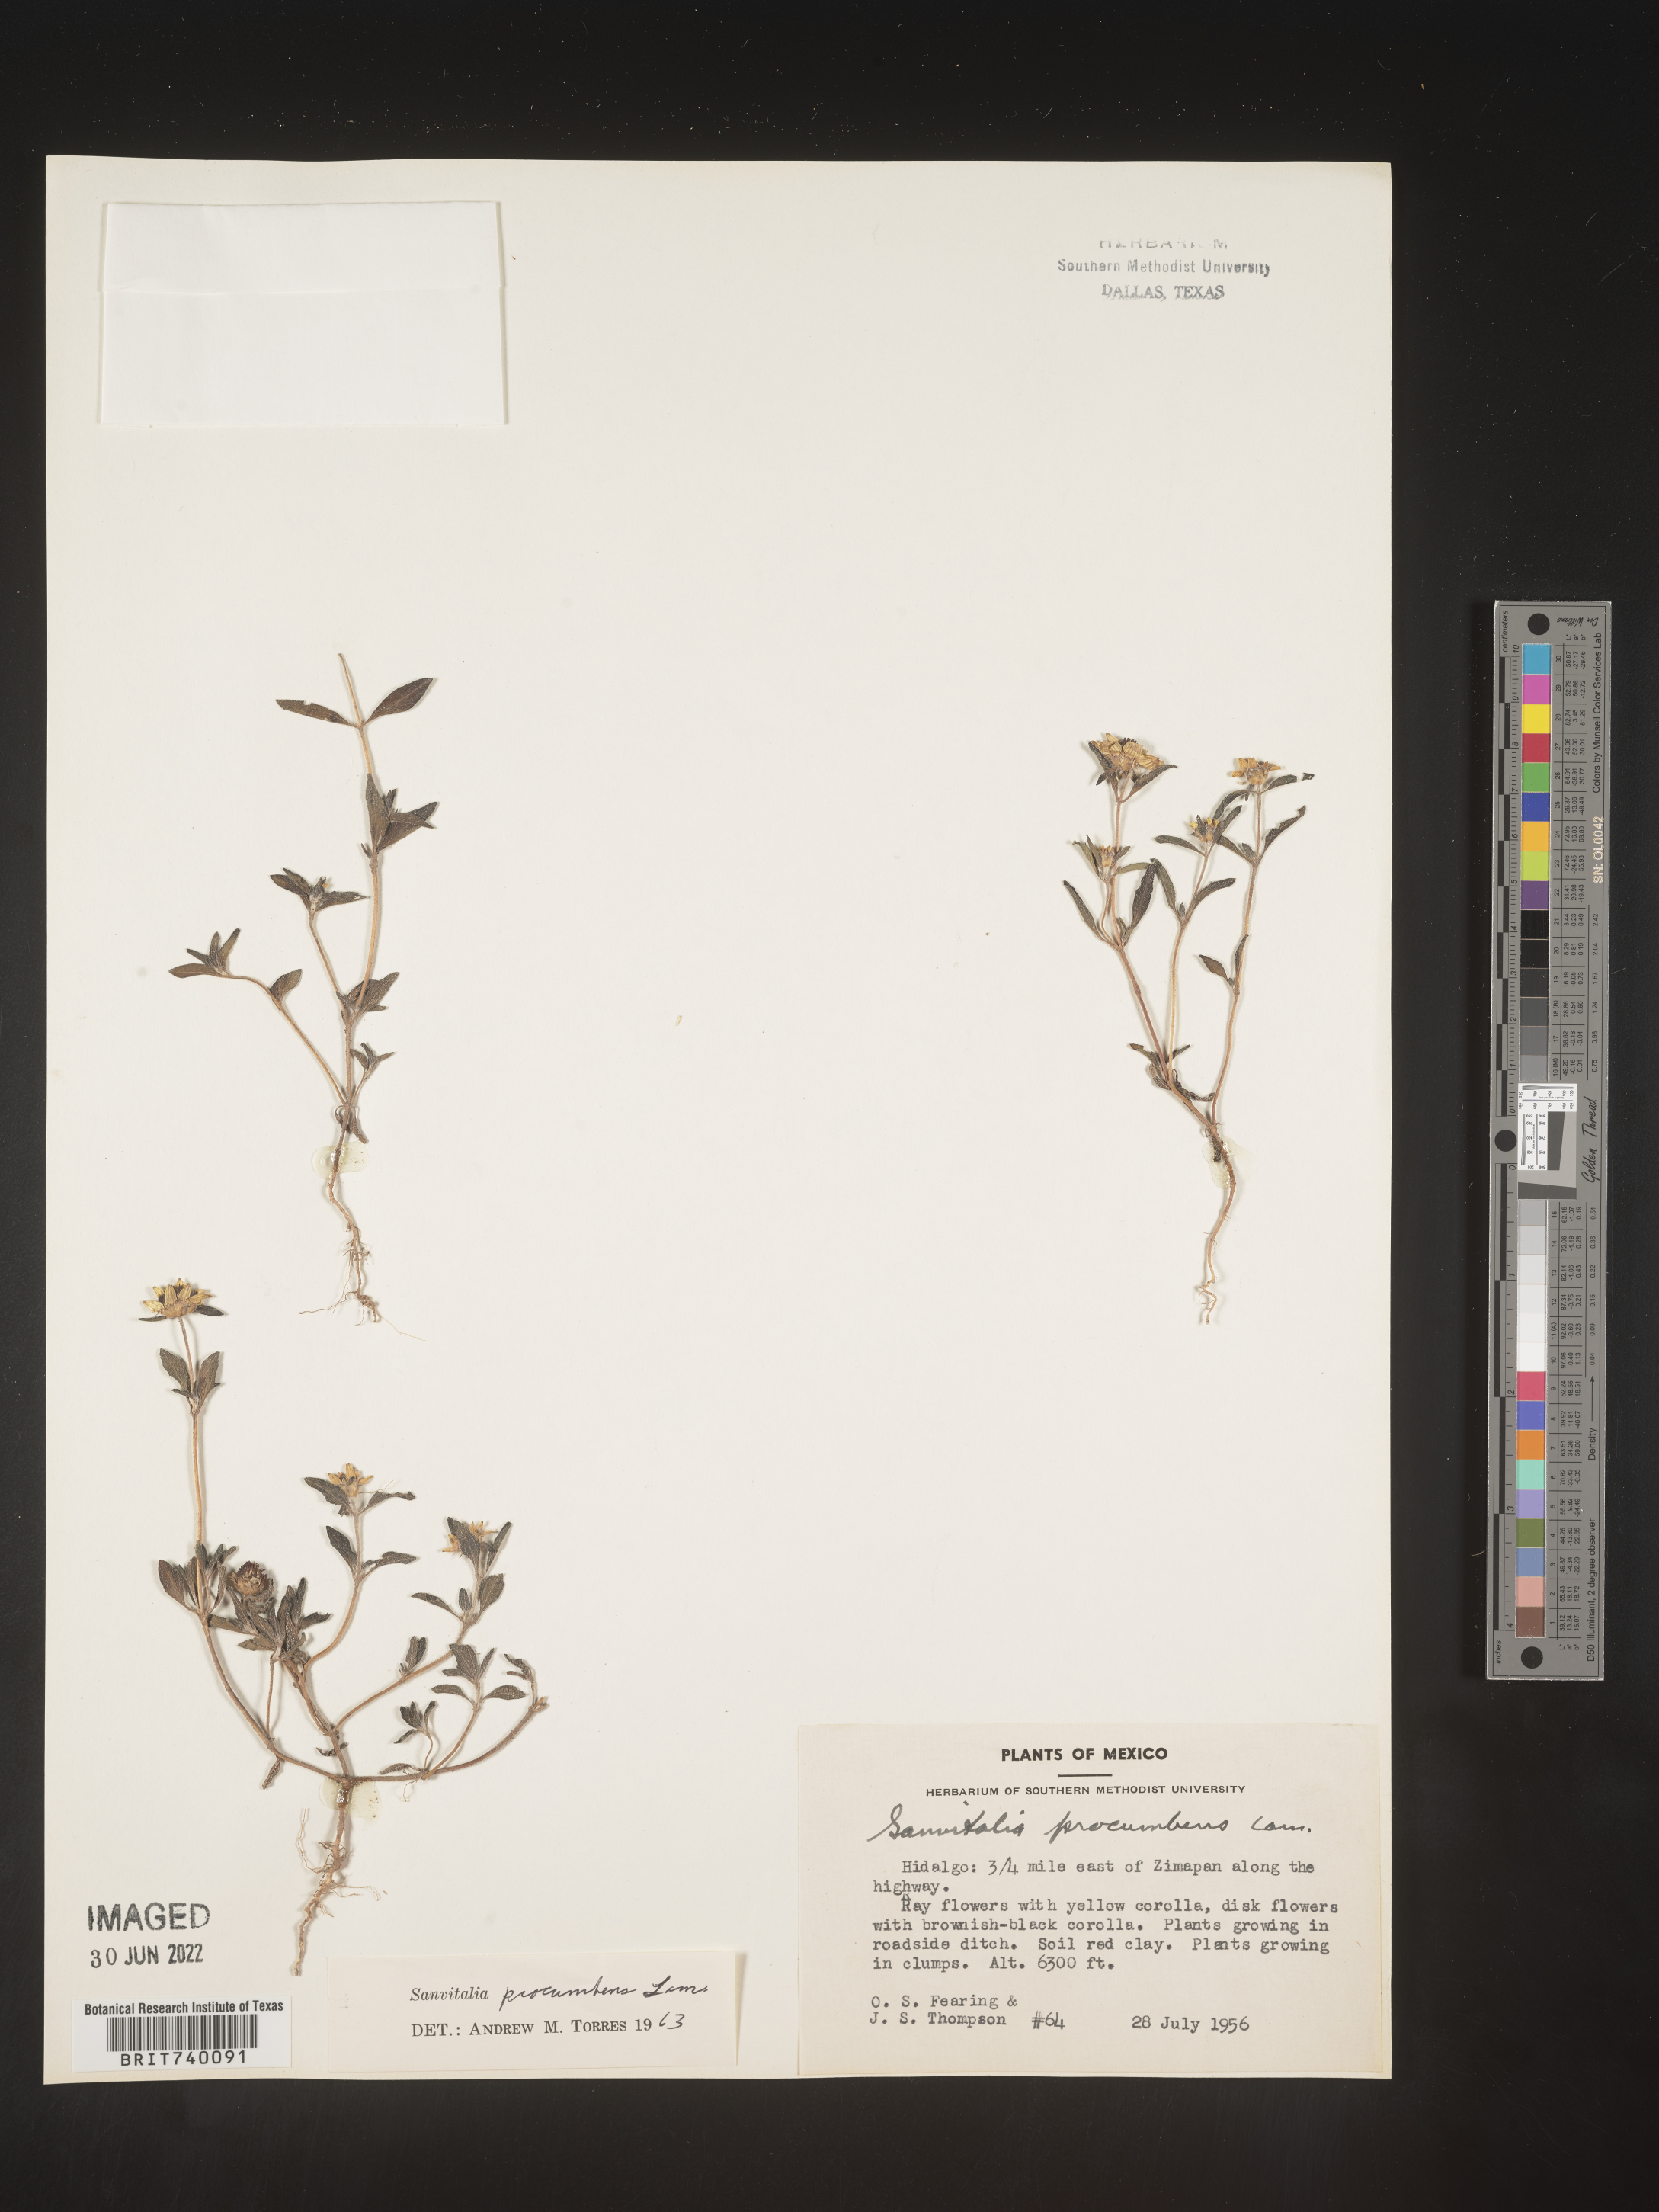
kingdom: Plantae
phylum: Tracheophyta
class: Magnoliopsida
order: Asterales
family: Asteraceae
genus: Sanvitalia
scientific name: Sanvitalia
